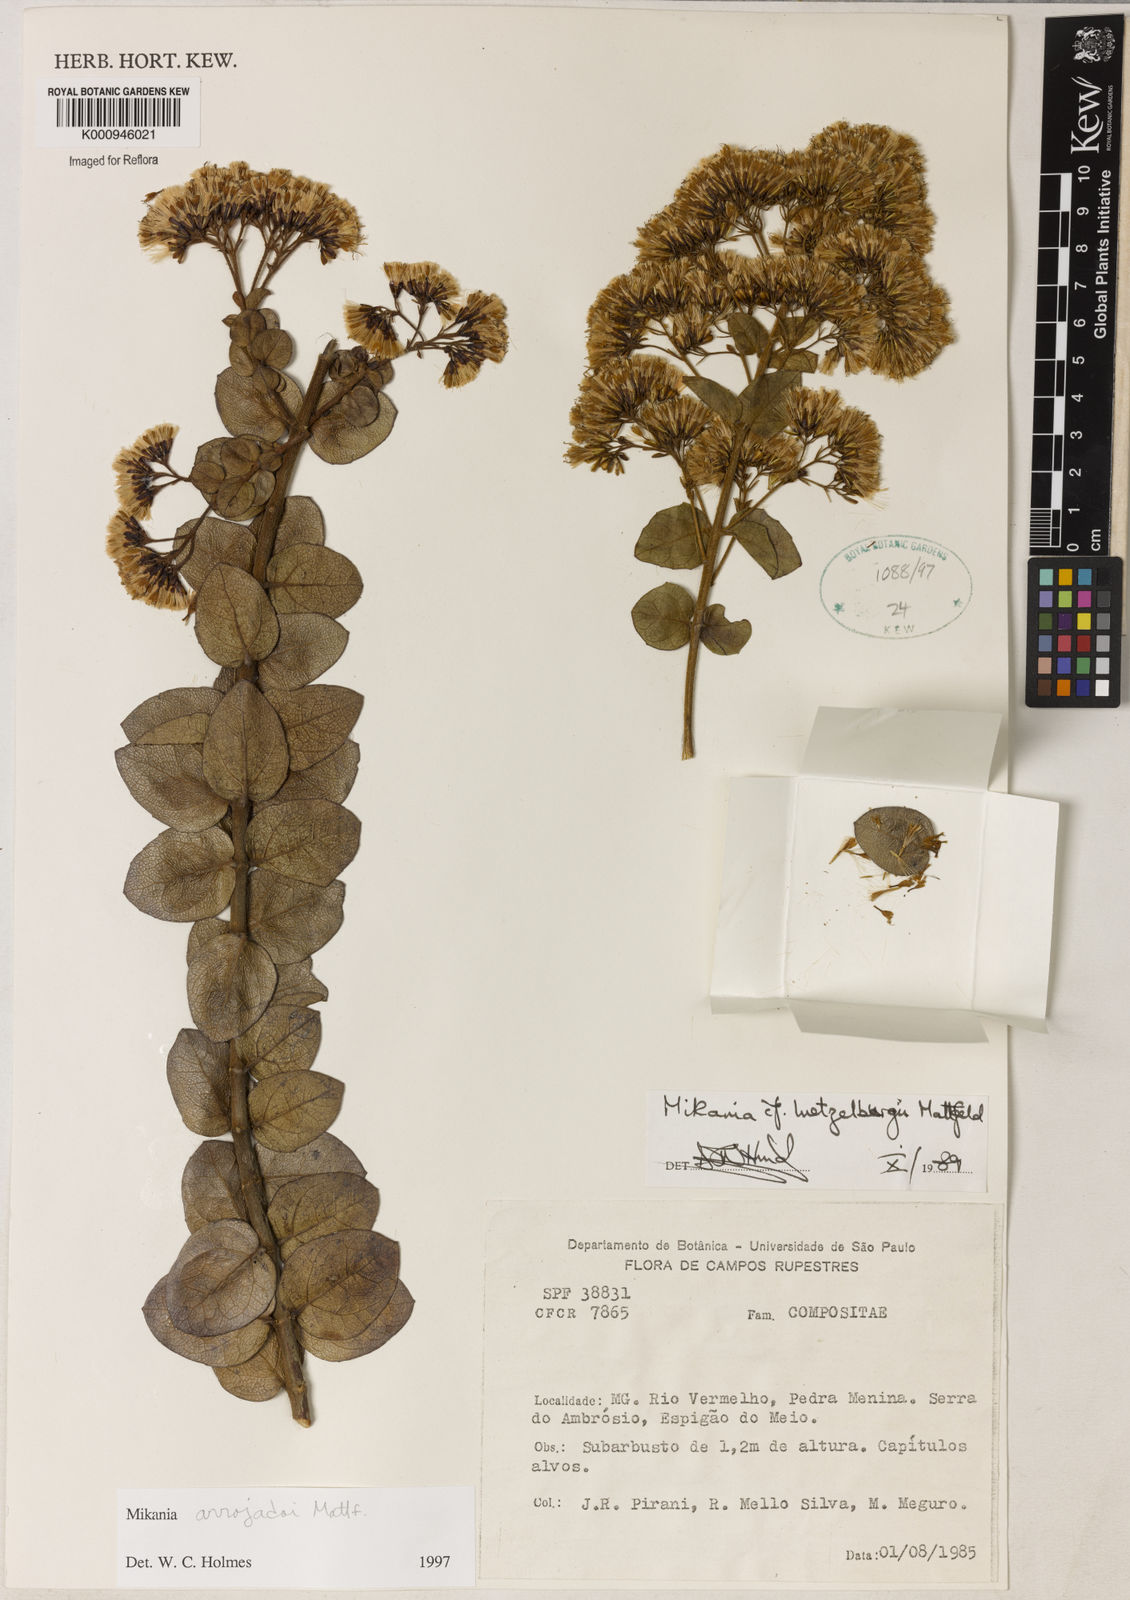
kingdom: Plantae
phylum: Tracheophyta
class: Magnoliopsida
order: Asterales
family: Asteraceae
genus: Mikania
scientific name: Mikania arrojadoi
